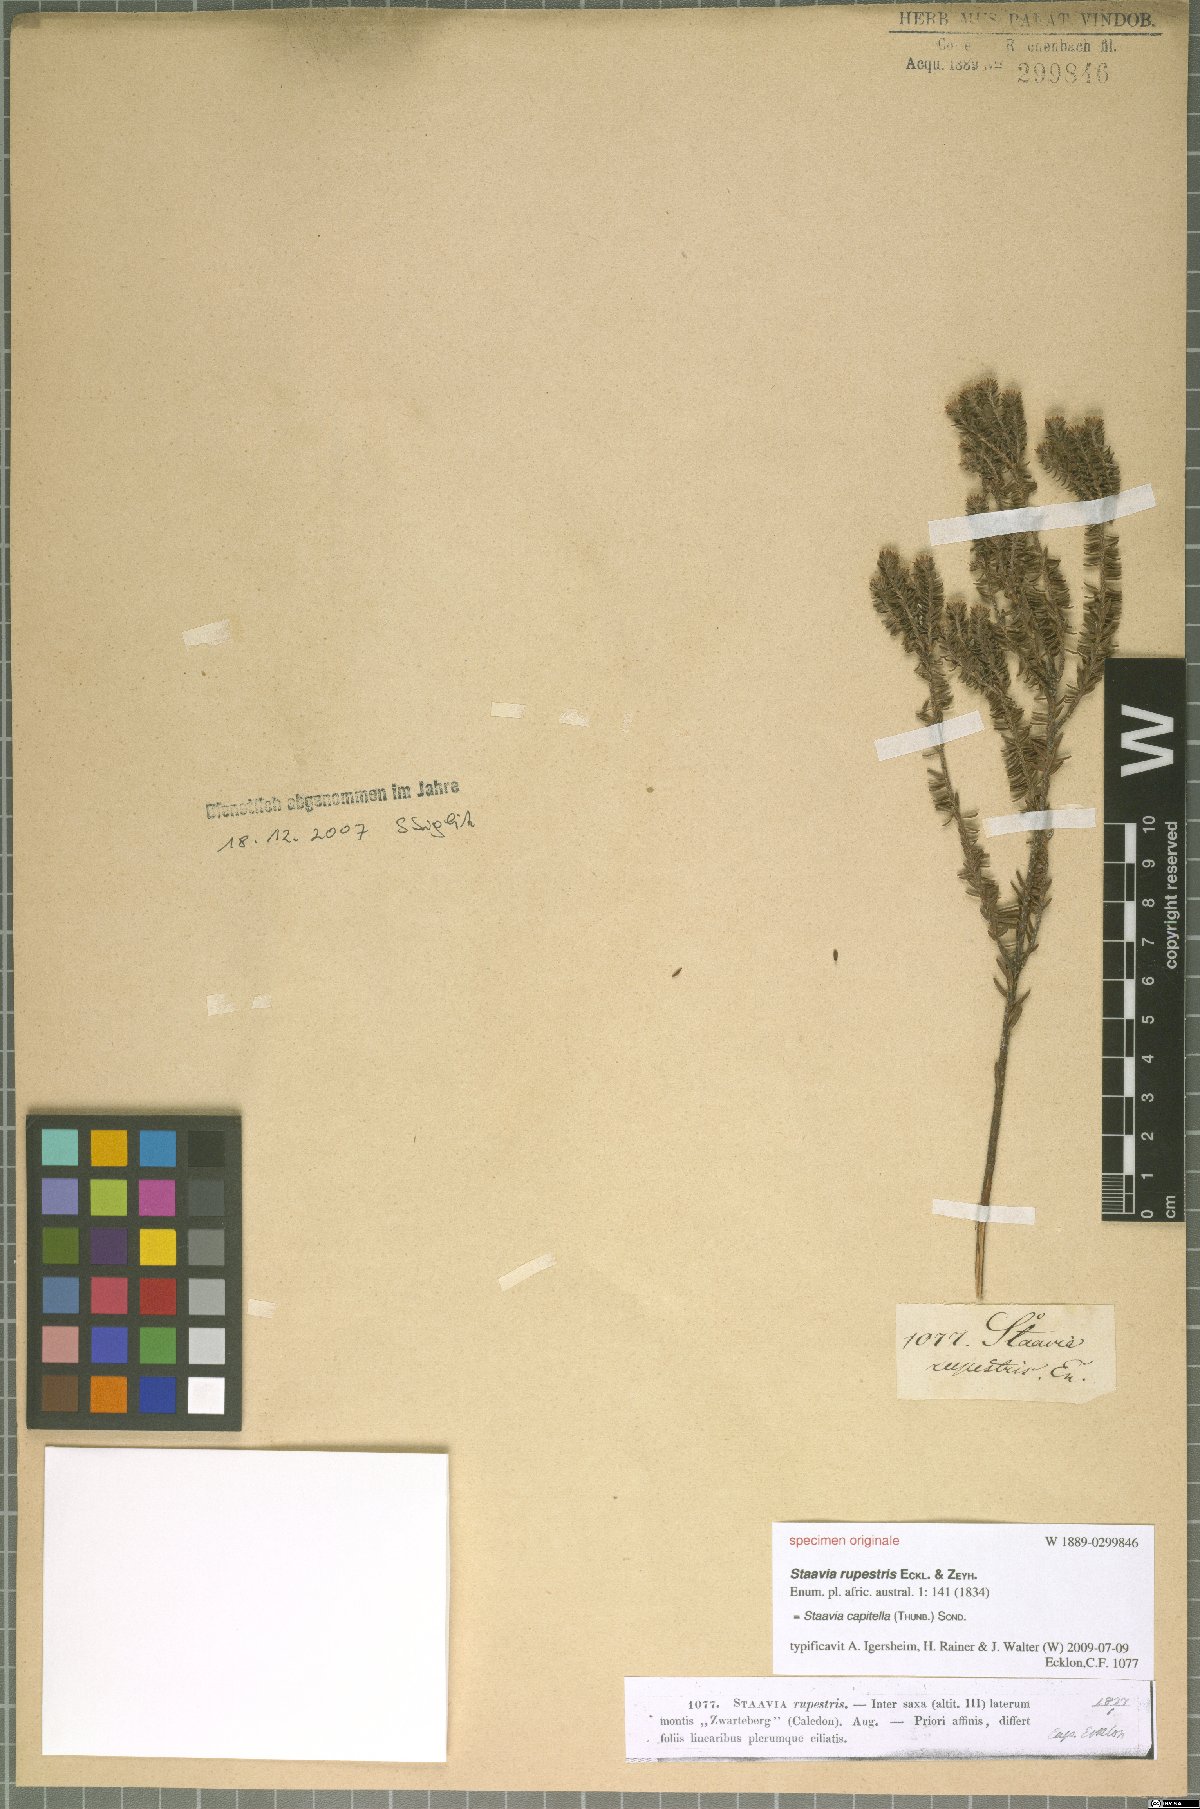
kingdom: Plantae
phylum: Tracheophyta
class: Magnoliopsida
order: Bruniales
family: Bruniaceae
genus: Staavia
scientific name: Staavia capitella
